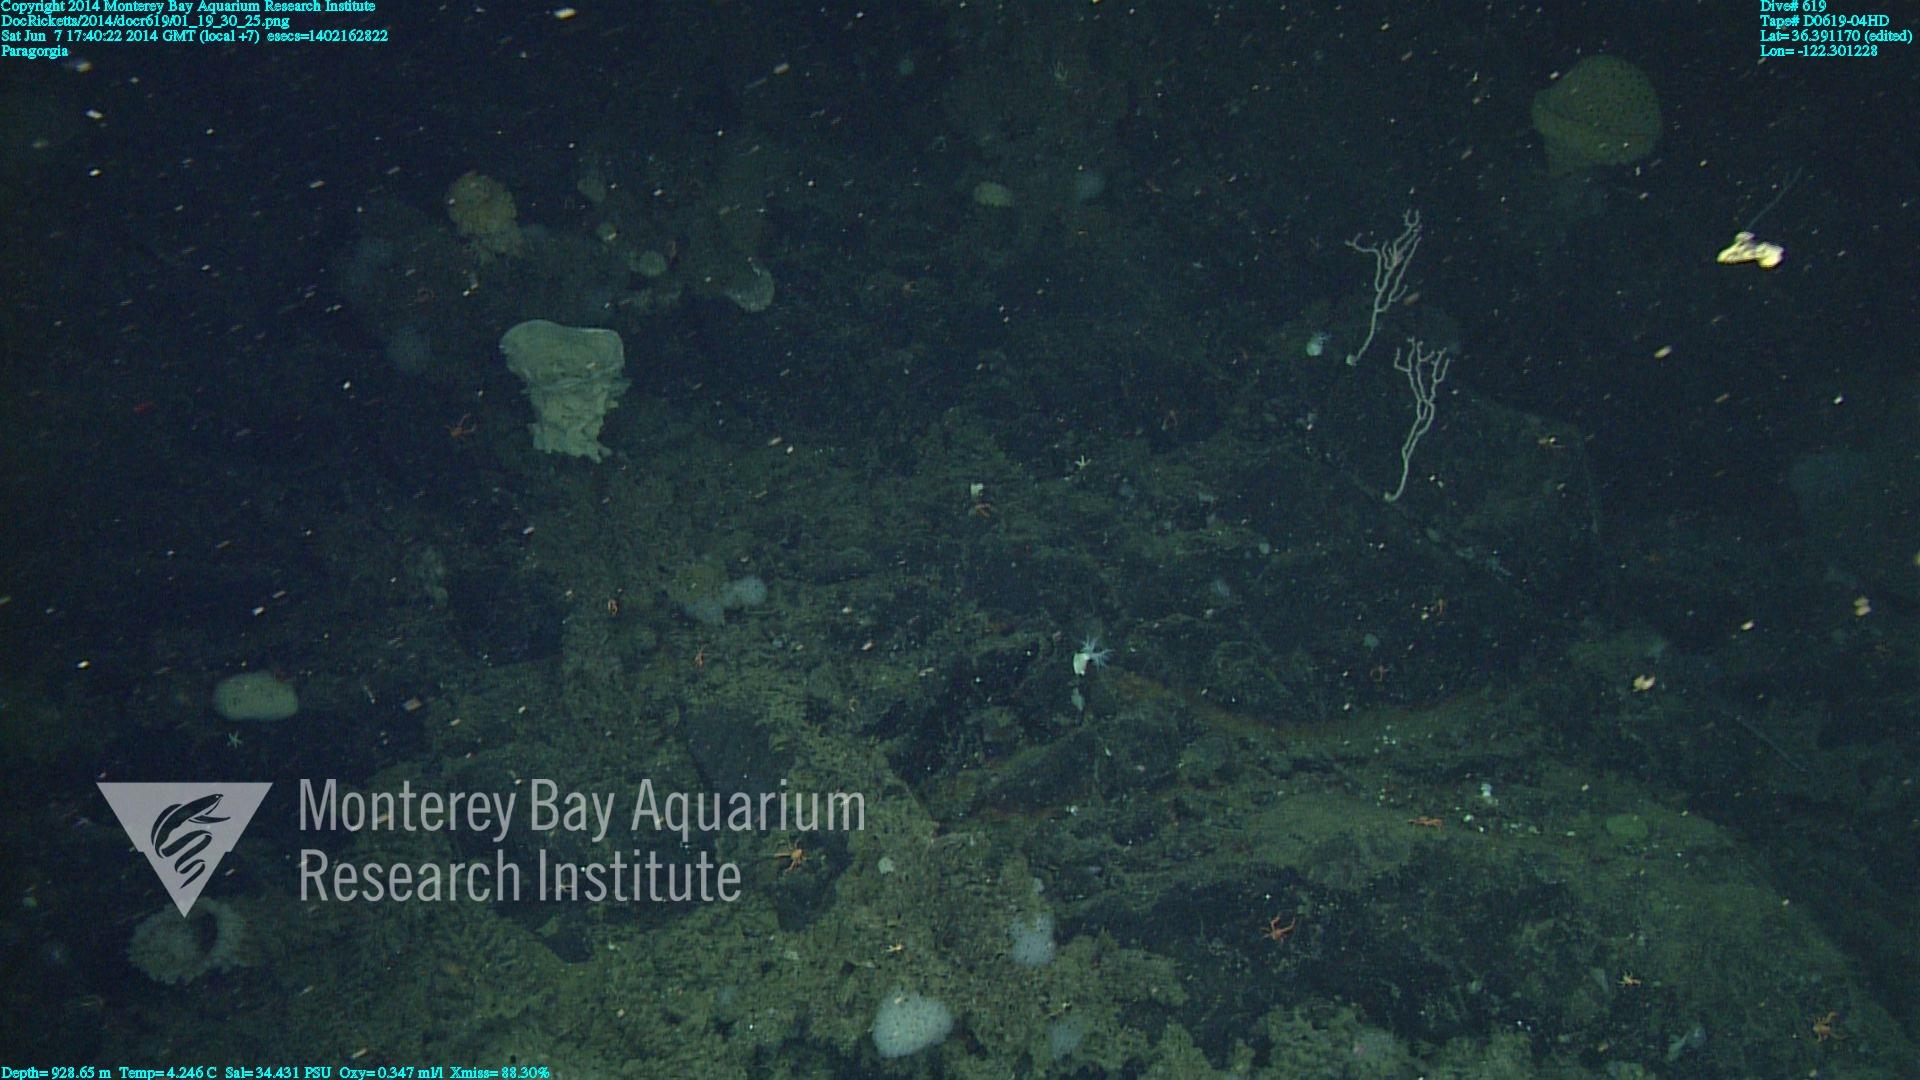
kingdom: Animalia
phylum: Cnidaria
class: Anthozoa
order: Scleralcyonacea
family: Coralliidae
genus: Paragorgia
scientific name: Paragorgia
